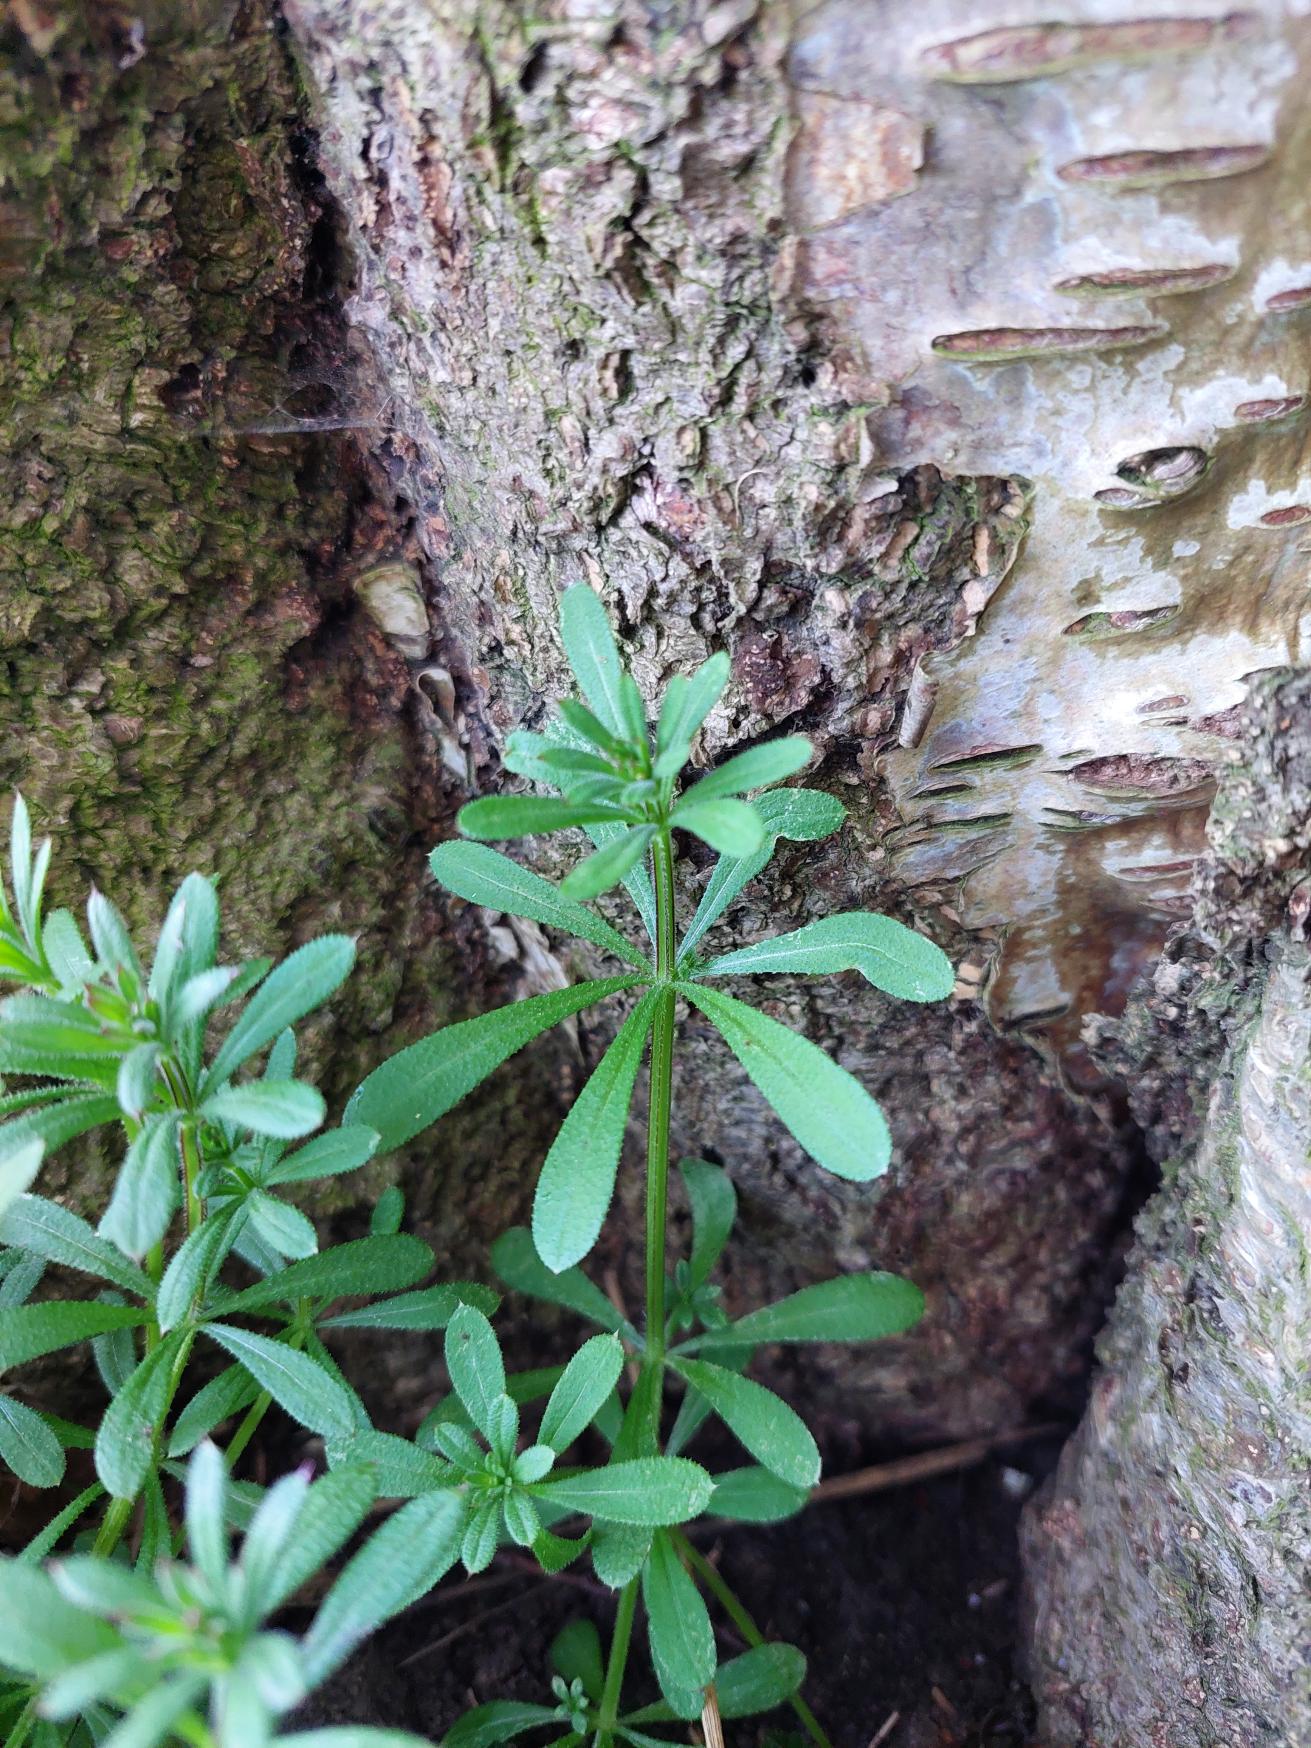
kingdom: Plantae
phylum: Tracheophyta
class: Magnoliopsida
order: Gentianales
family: Rubiaceae
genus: Galium
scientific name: Galium aparine
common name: Burre-snerre
